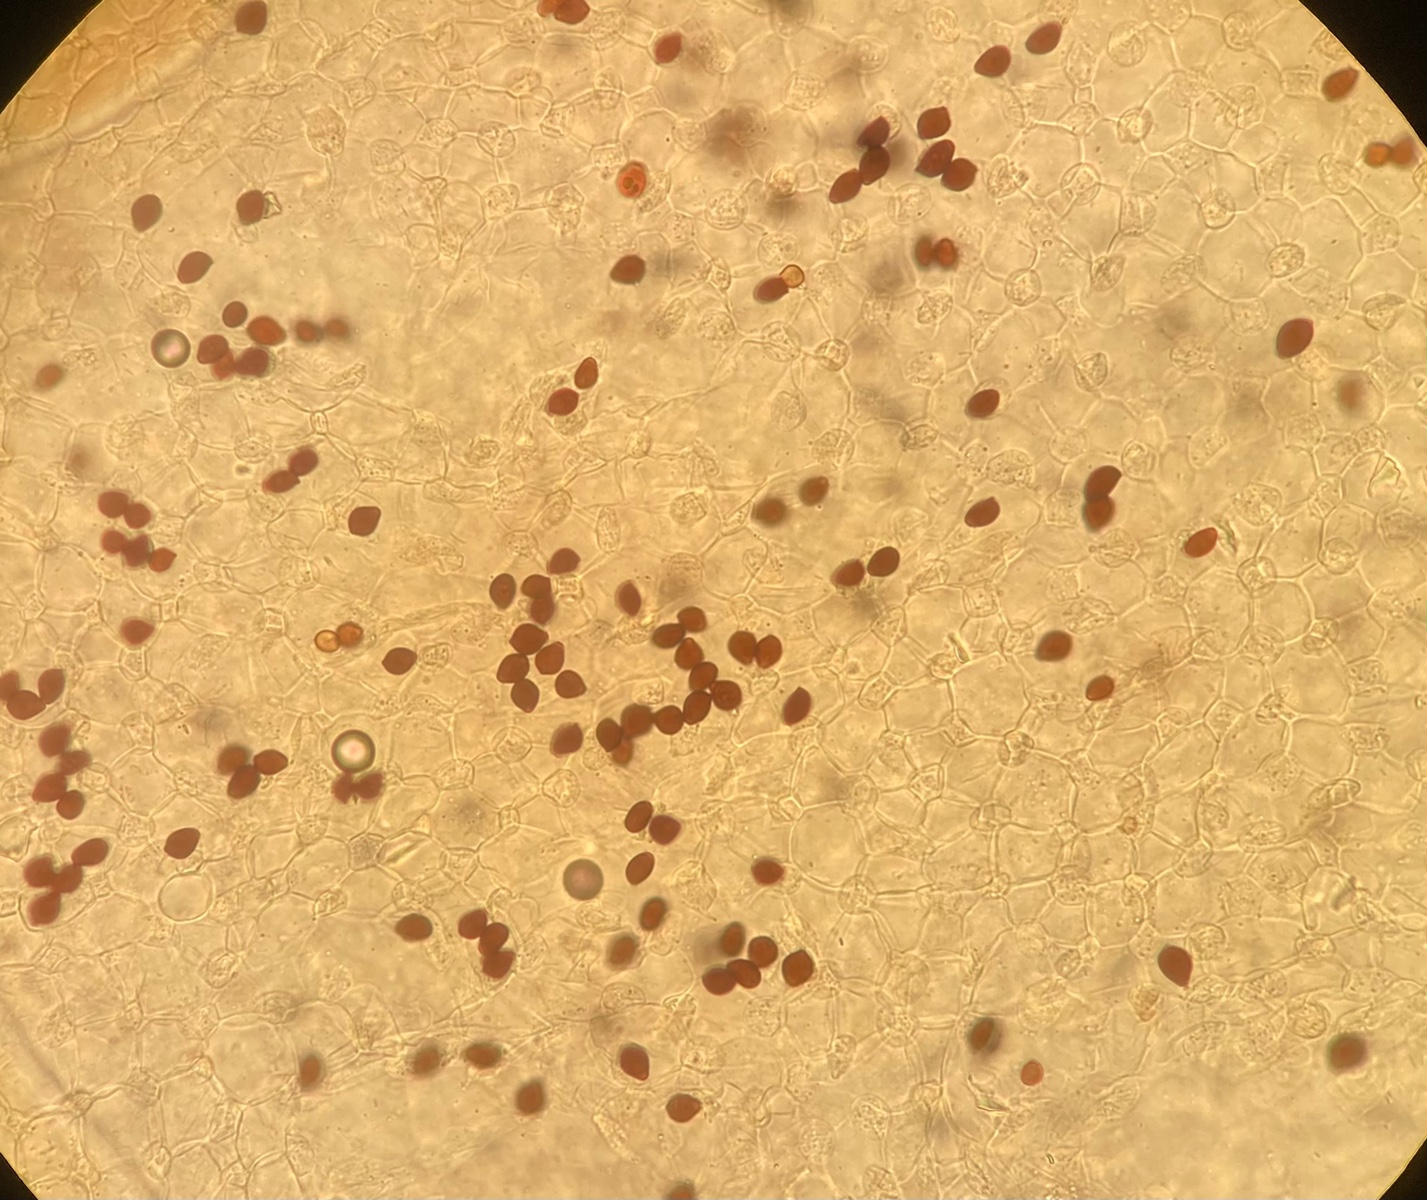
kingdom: Fungi
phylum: Basidiomycota
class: Agaricomycetes
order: Agaricales
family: Psathyrellaceae
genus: Parasola
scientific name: Parasola kuehneri
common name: skygge-hjulhat
